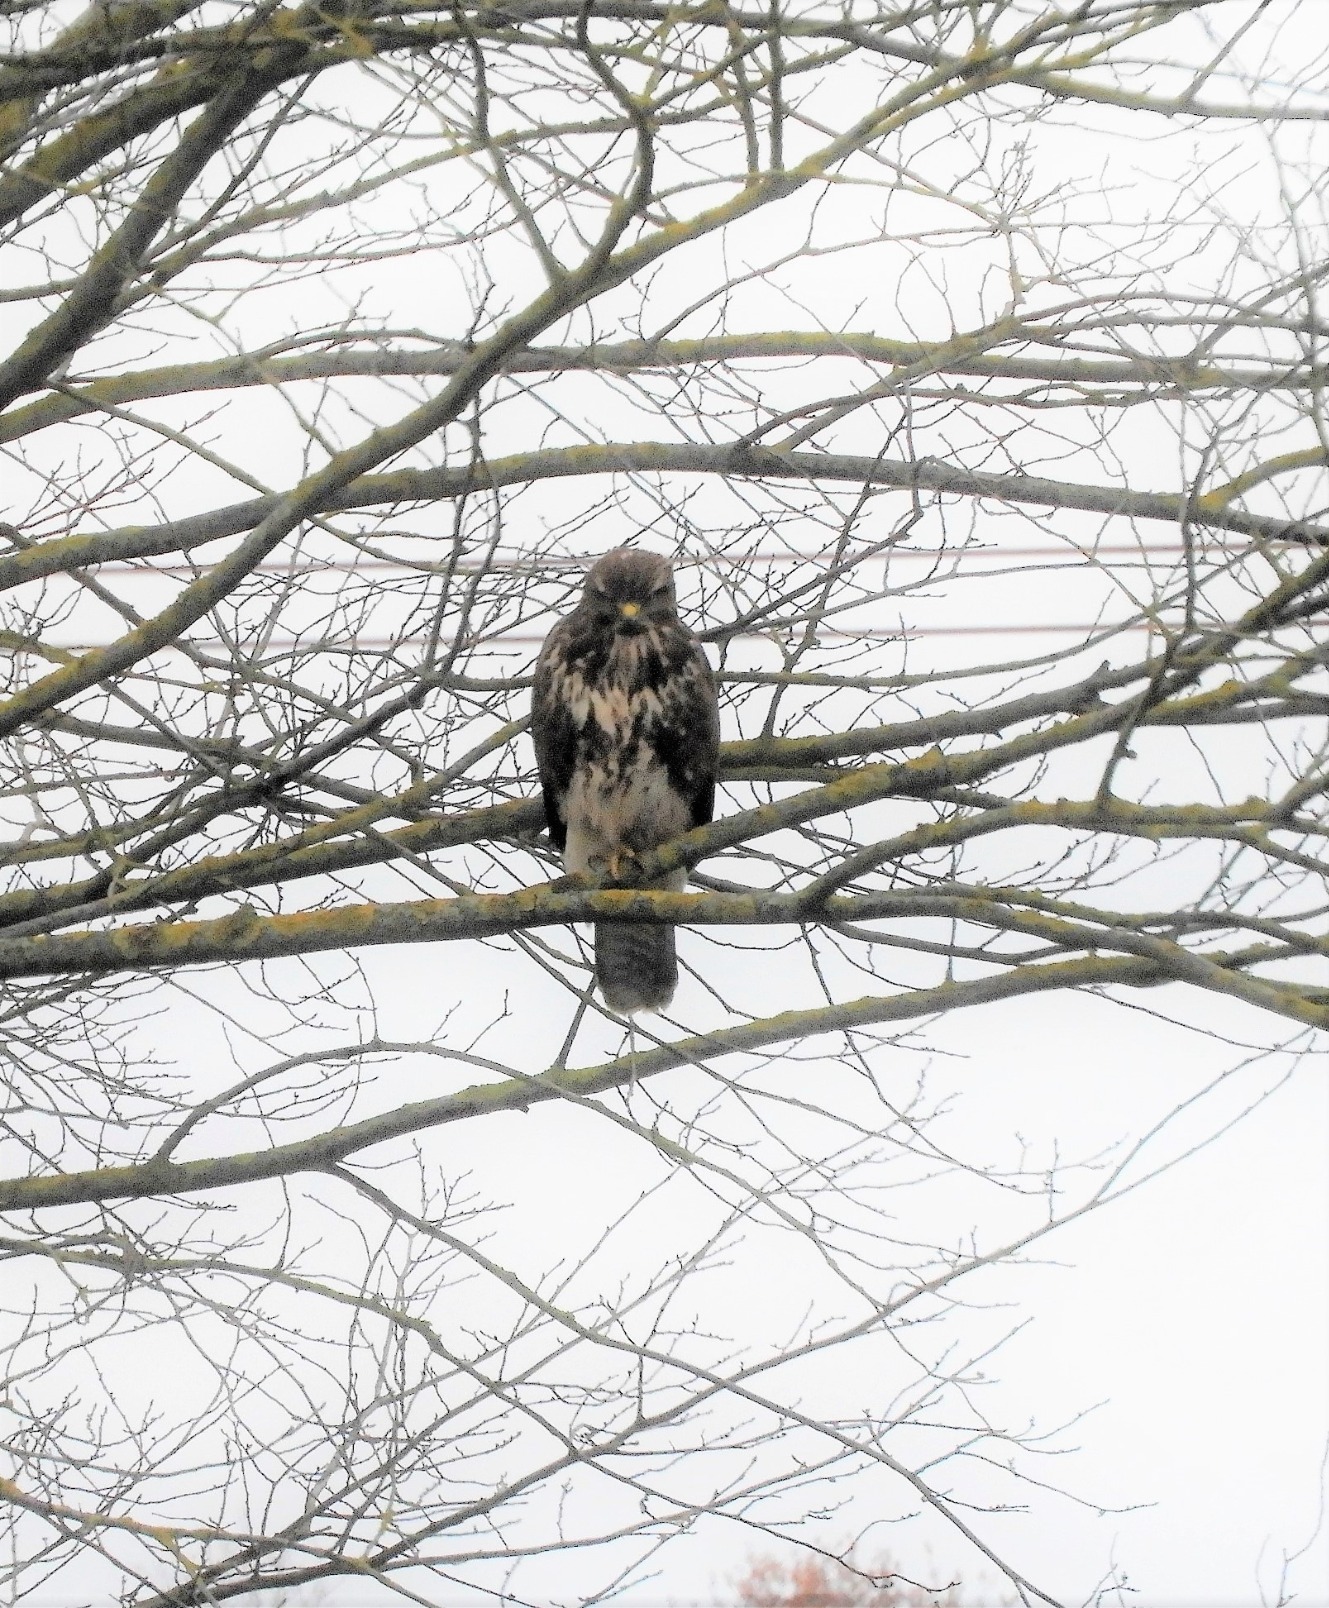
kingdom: Animalia
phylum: Chordata
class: Aves
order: Accipitriformes
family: Accipitridae
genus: Buteo
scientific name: Buteo buteo
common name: Musvåge
